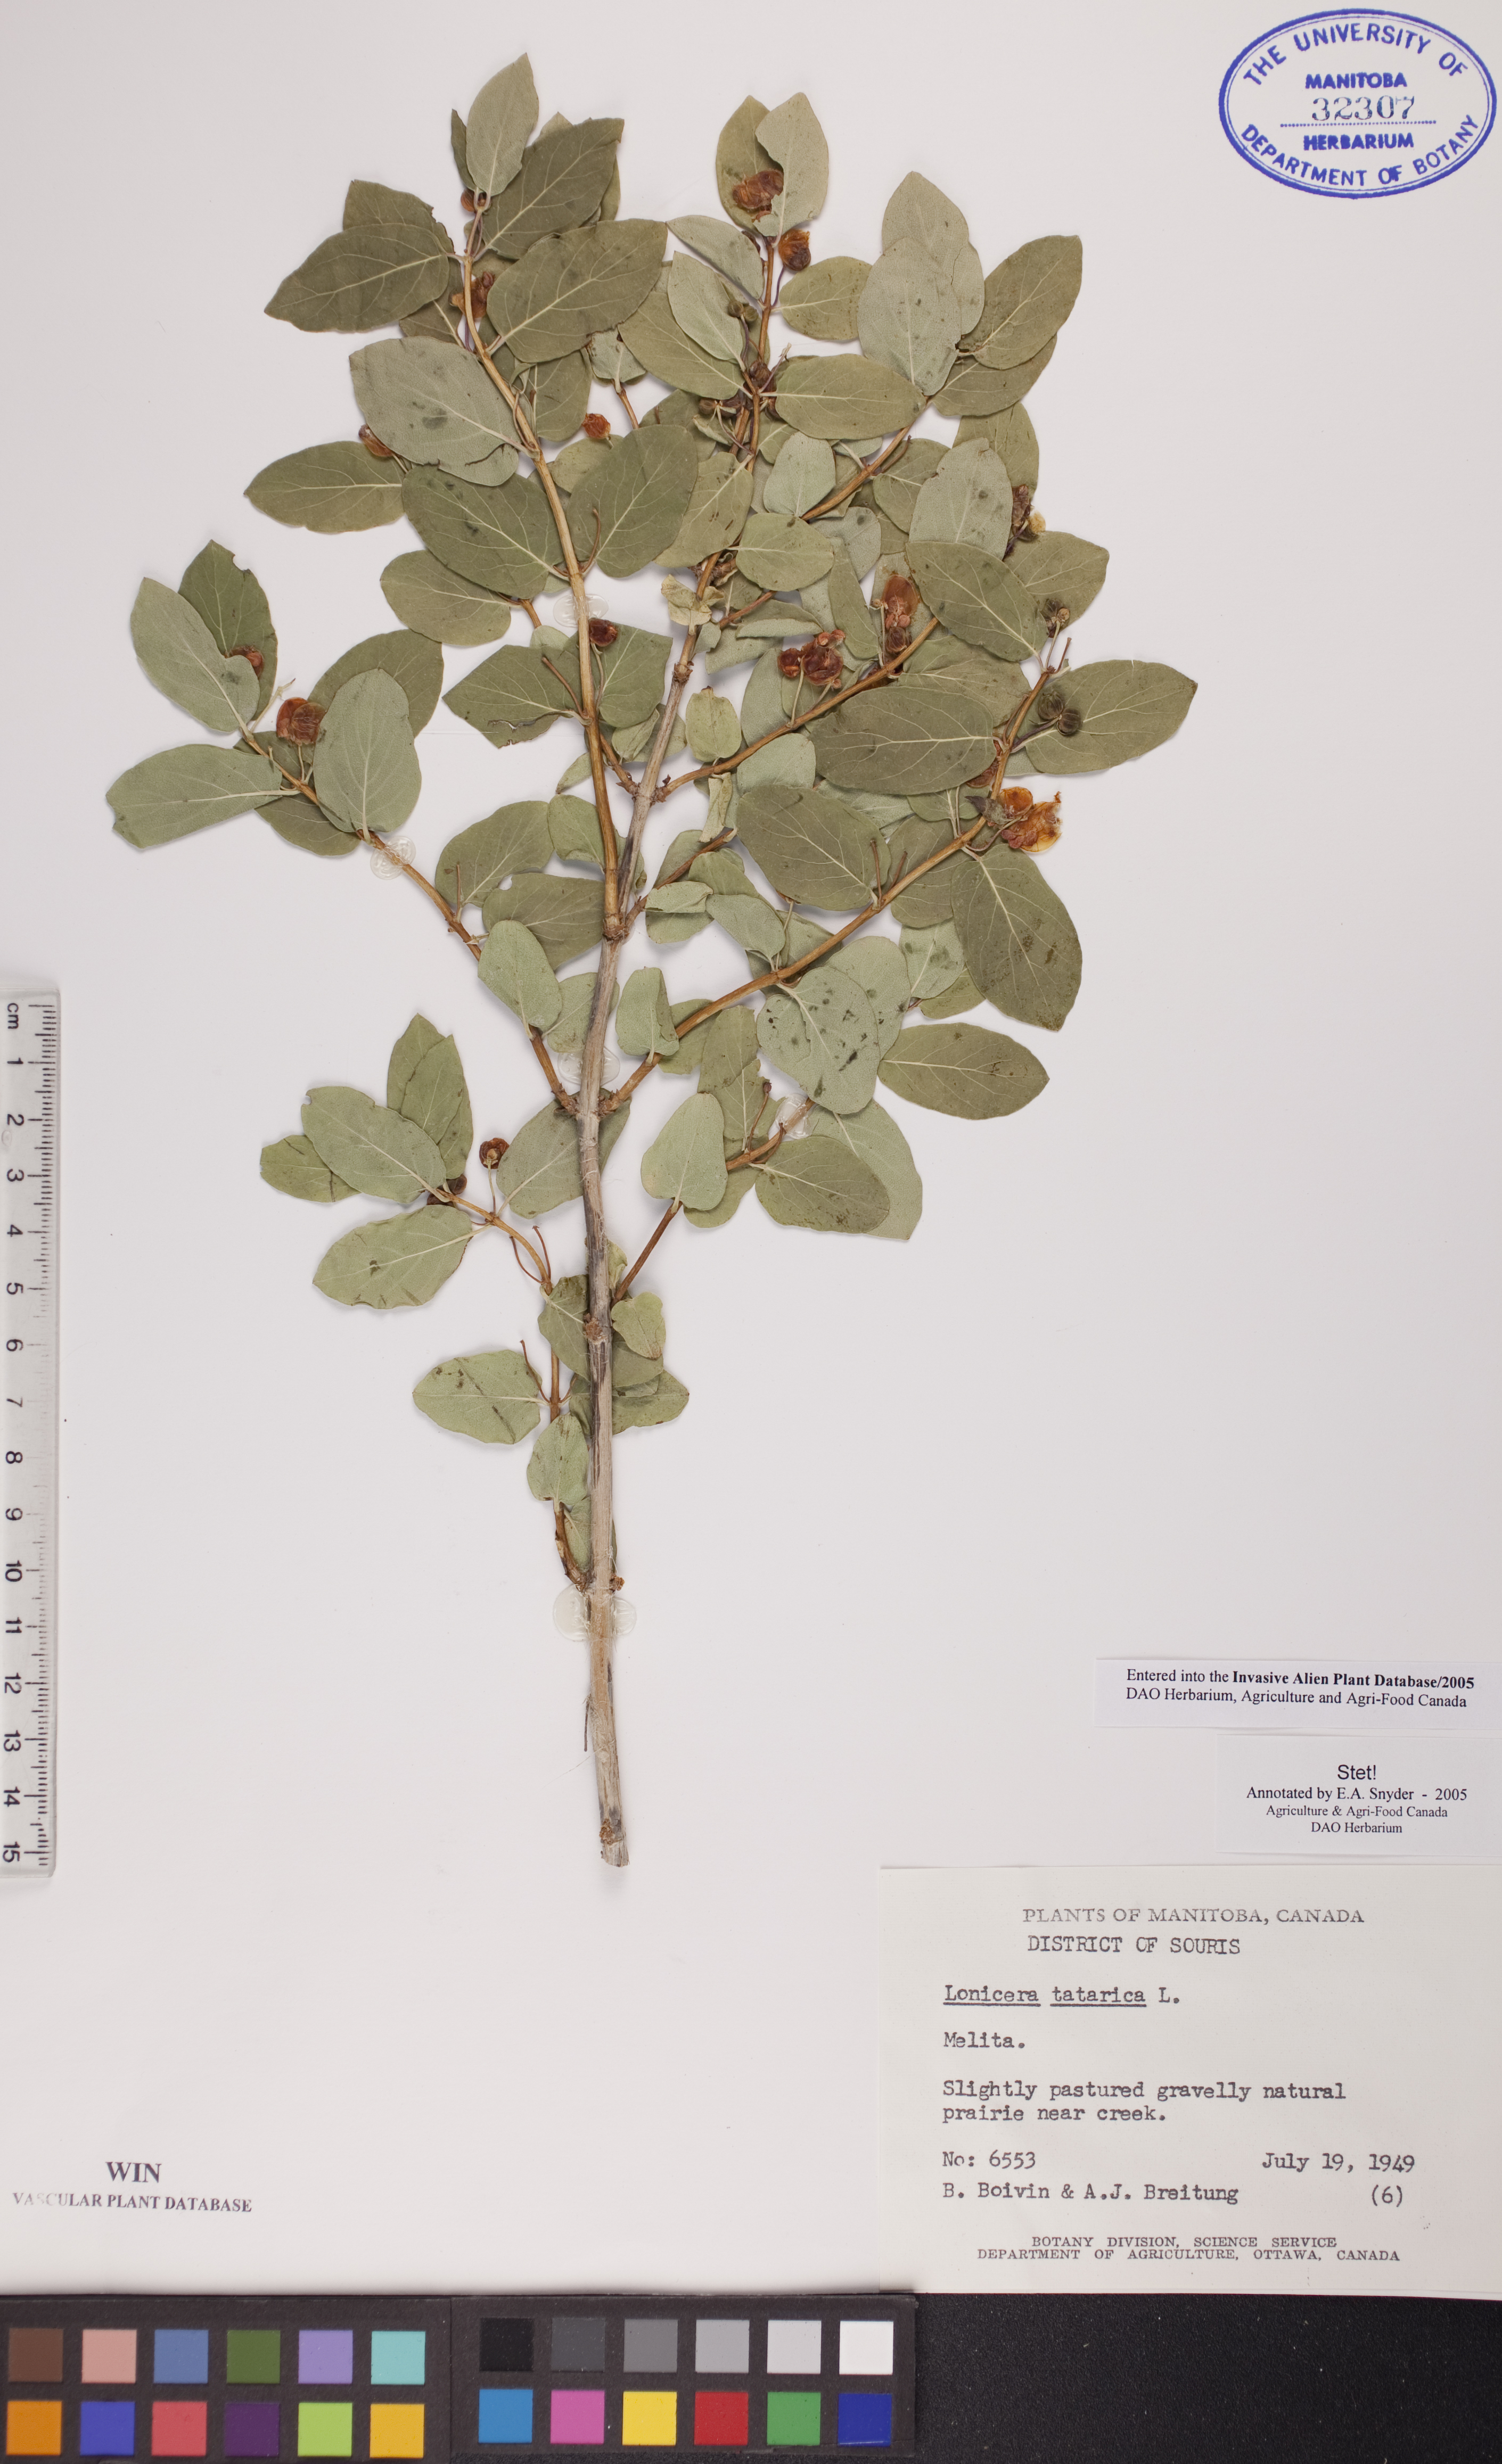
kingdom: Plantae
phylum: Tracheophyta
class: Magnoliopsida
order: Dipsacales
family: Caprifoliaceae
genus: Lonicera
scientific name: Lonicera tatarica
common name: Tatarian honeysuckle
